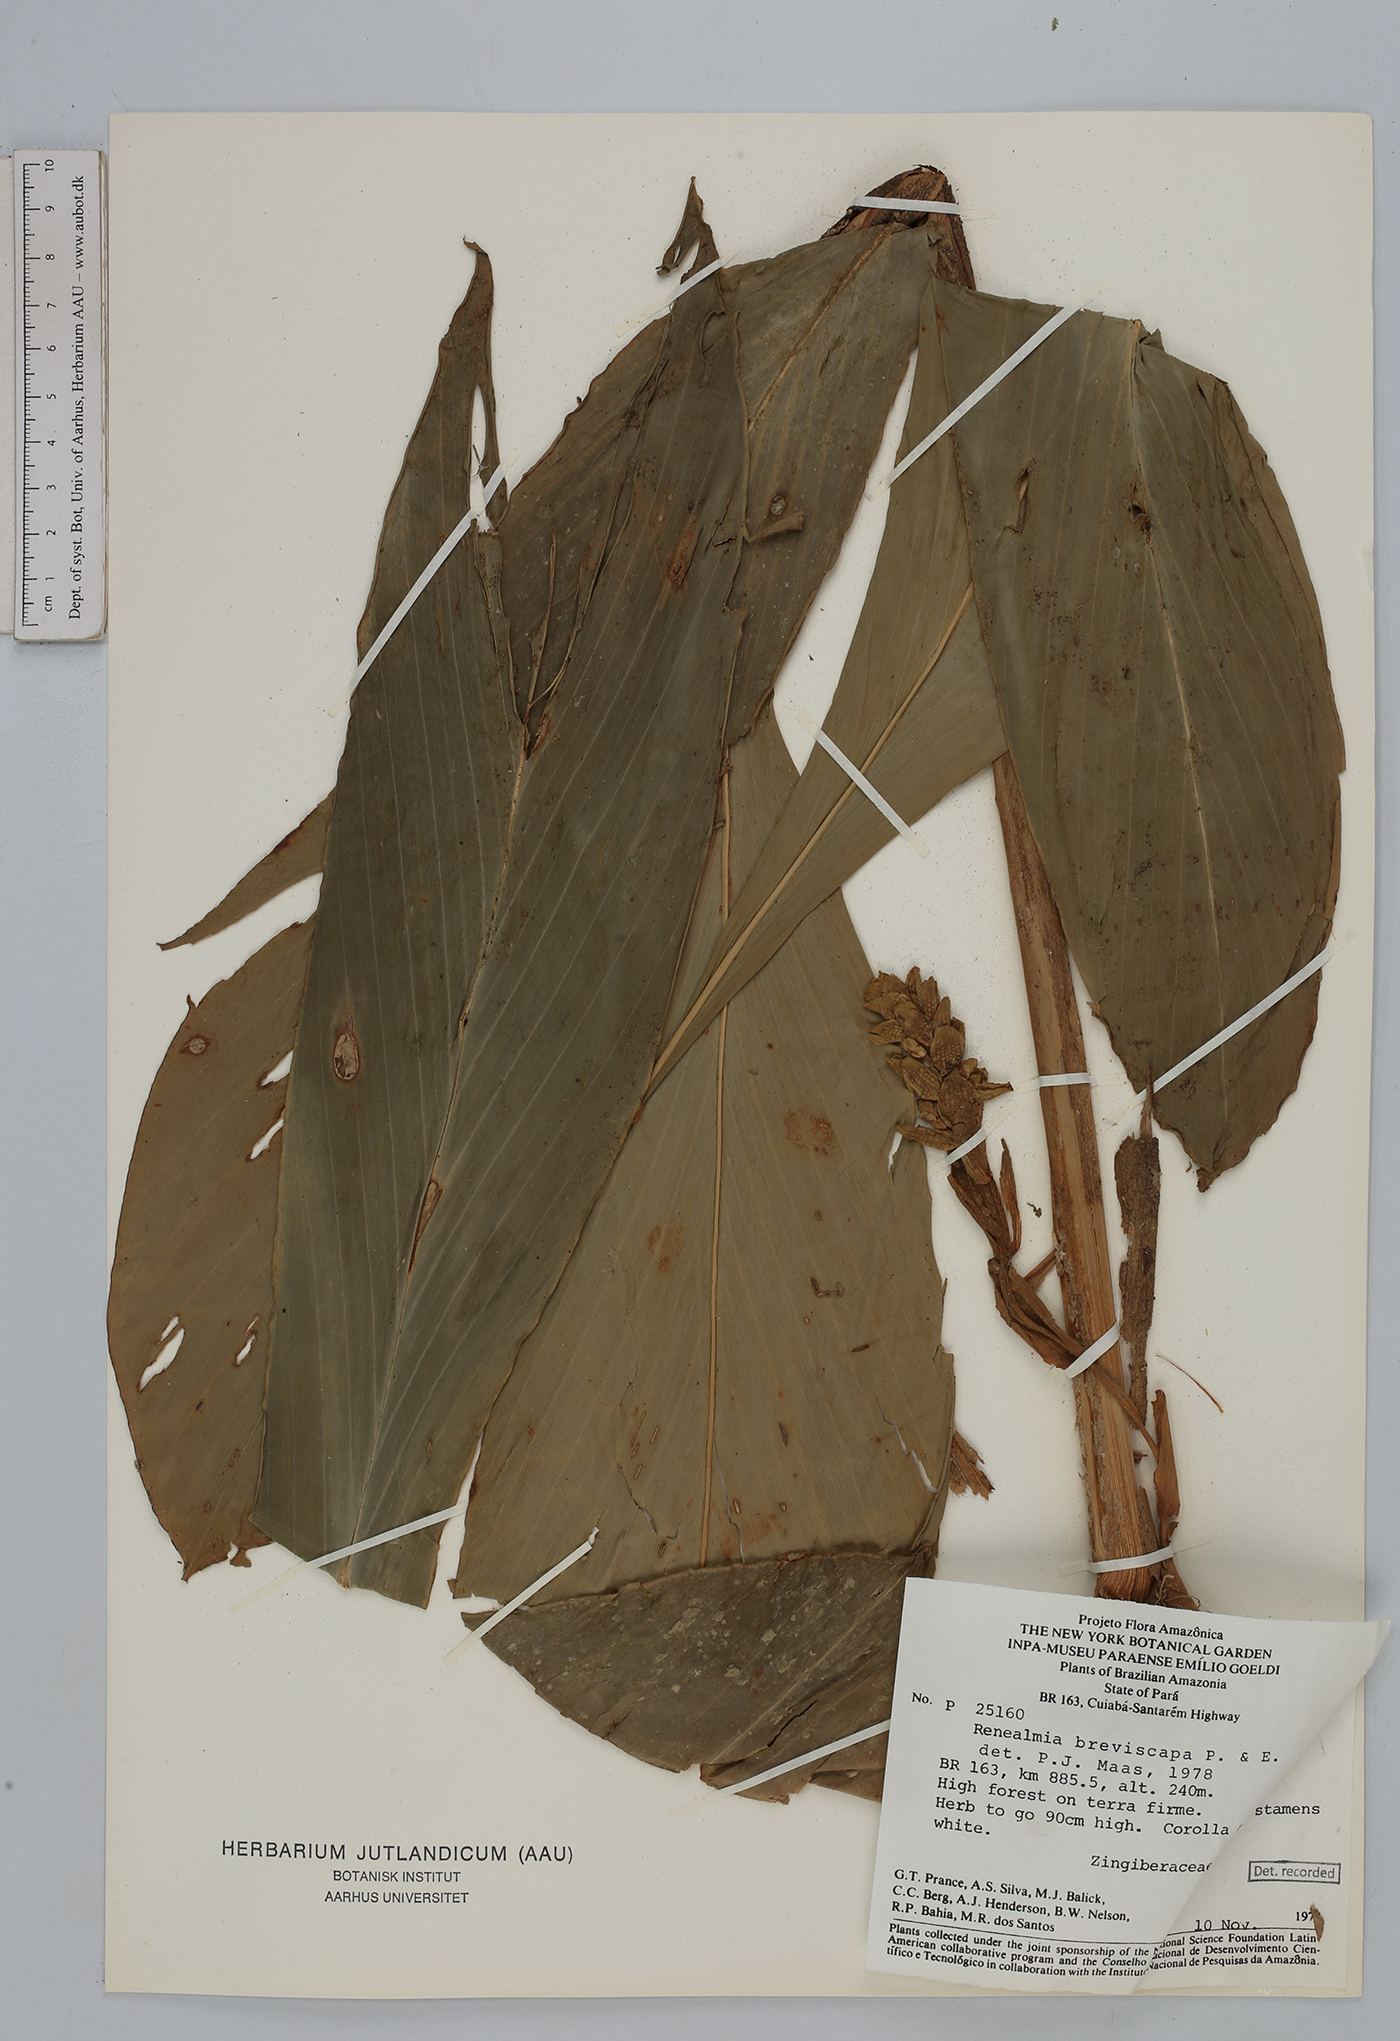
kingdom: Plantae
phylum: Tracheophyta
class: Liliopsida
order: Zingiberales
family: Zingiberaceae
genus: Renealmia
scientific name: Renealmia breviscapa
